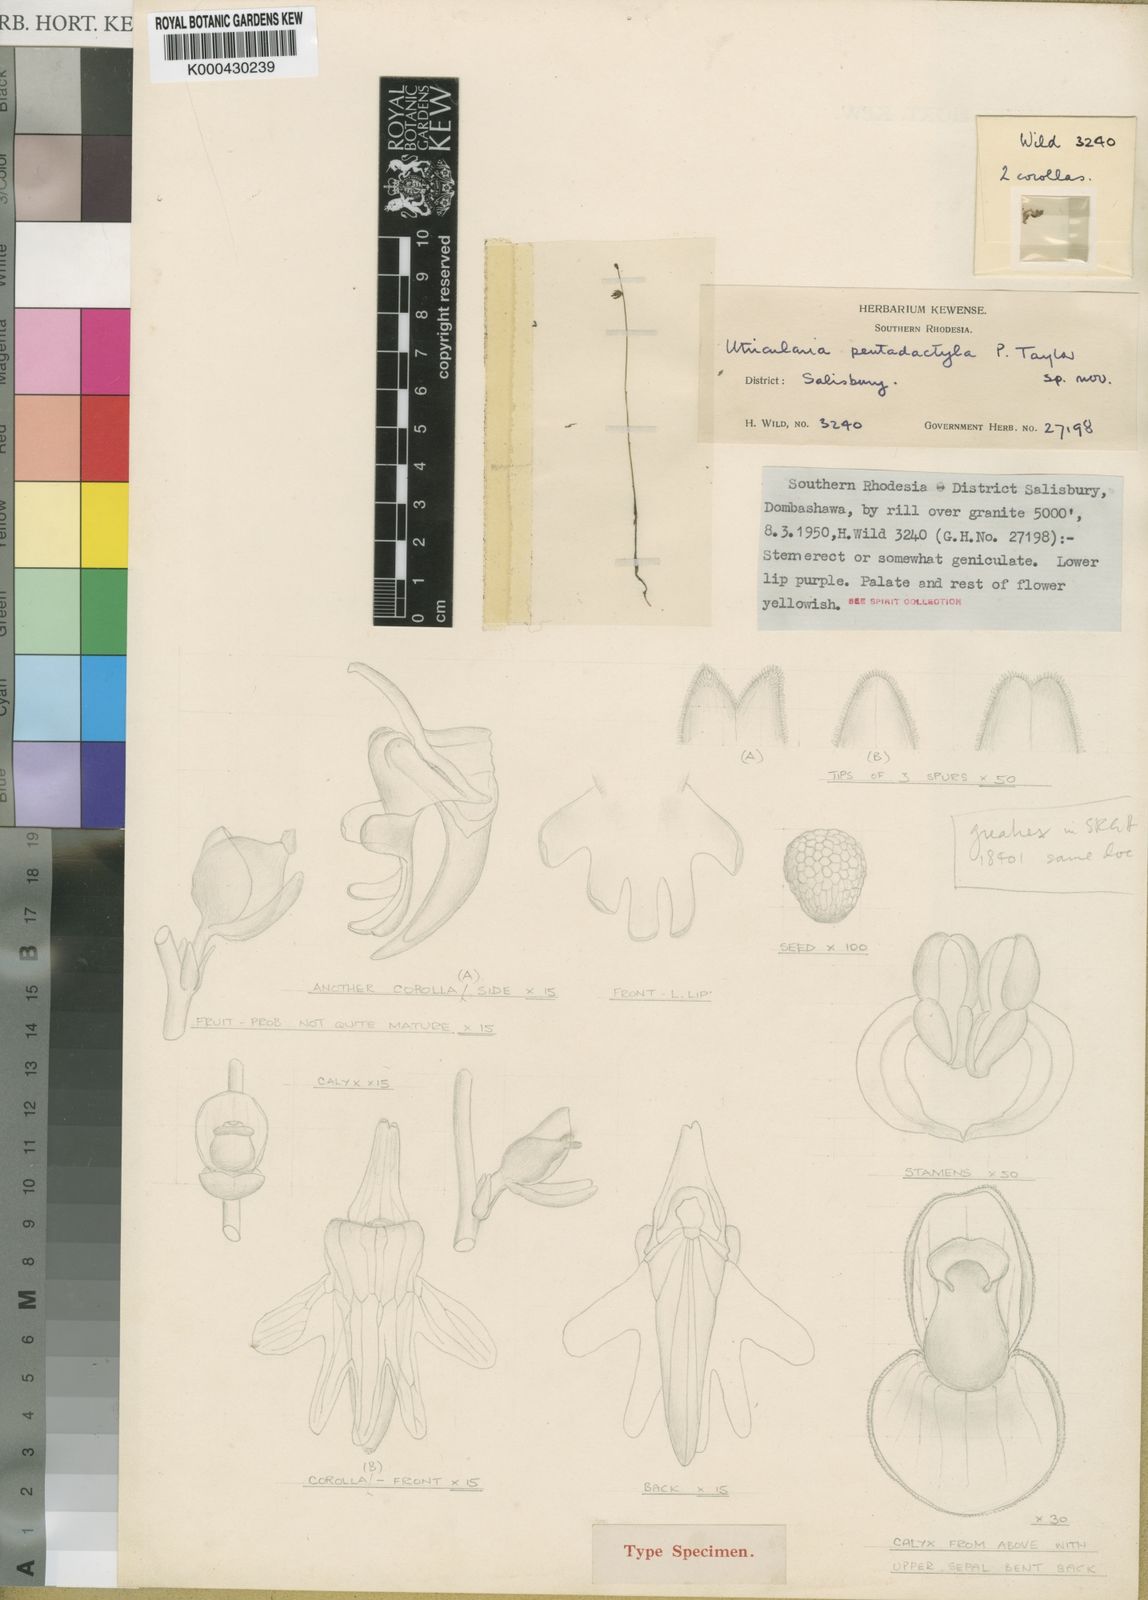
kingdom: Plantae
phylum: Tracheophyta
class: Magnoliopsida
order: Lamiales
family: Lentibulariaceae
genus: Utricularia
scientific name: Utricularia pentadactyla
